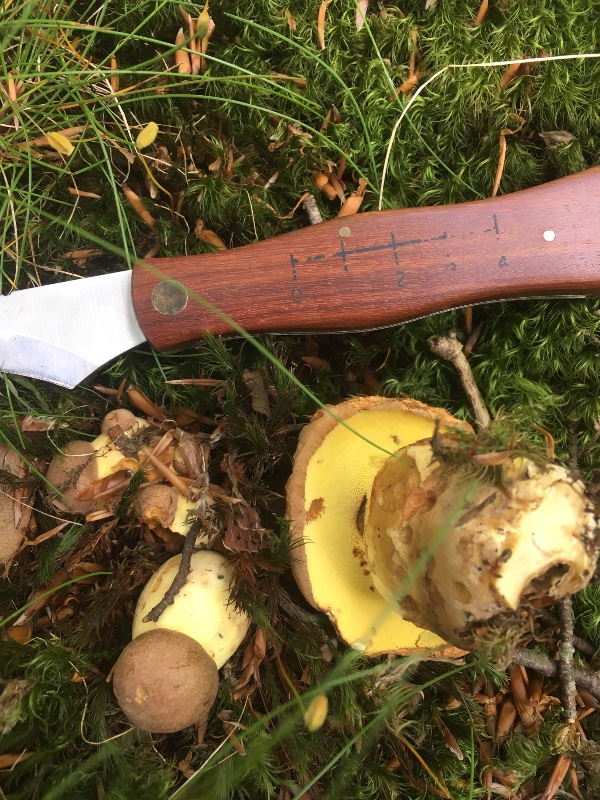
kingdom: Fungi
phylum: Basidiomycota
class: Agaricomycetes
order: Boletales
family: Boletaceae
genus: Butyriboletus
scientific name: Butyriboletus appendiculatus
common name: tenstokket rørhat
